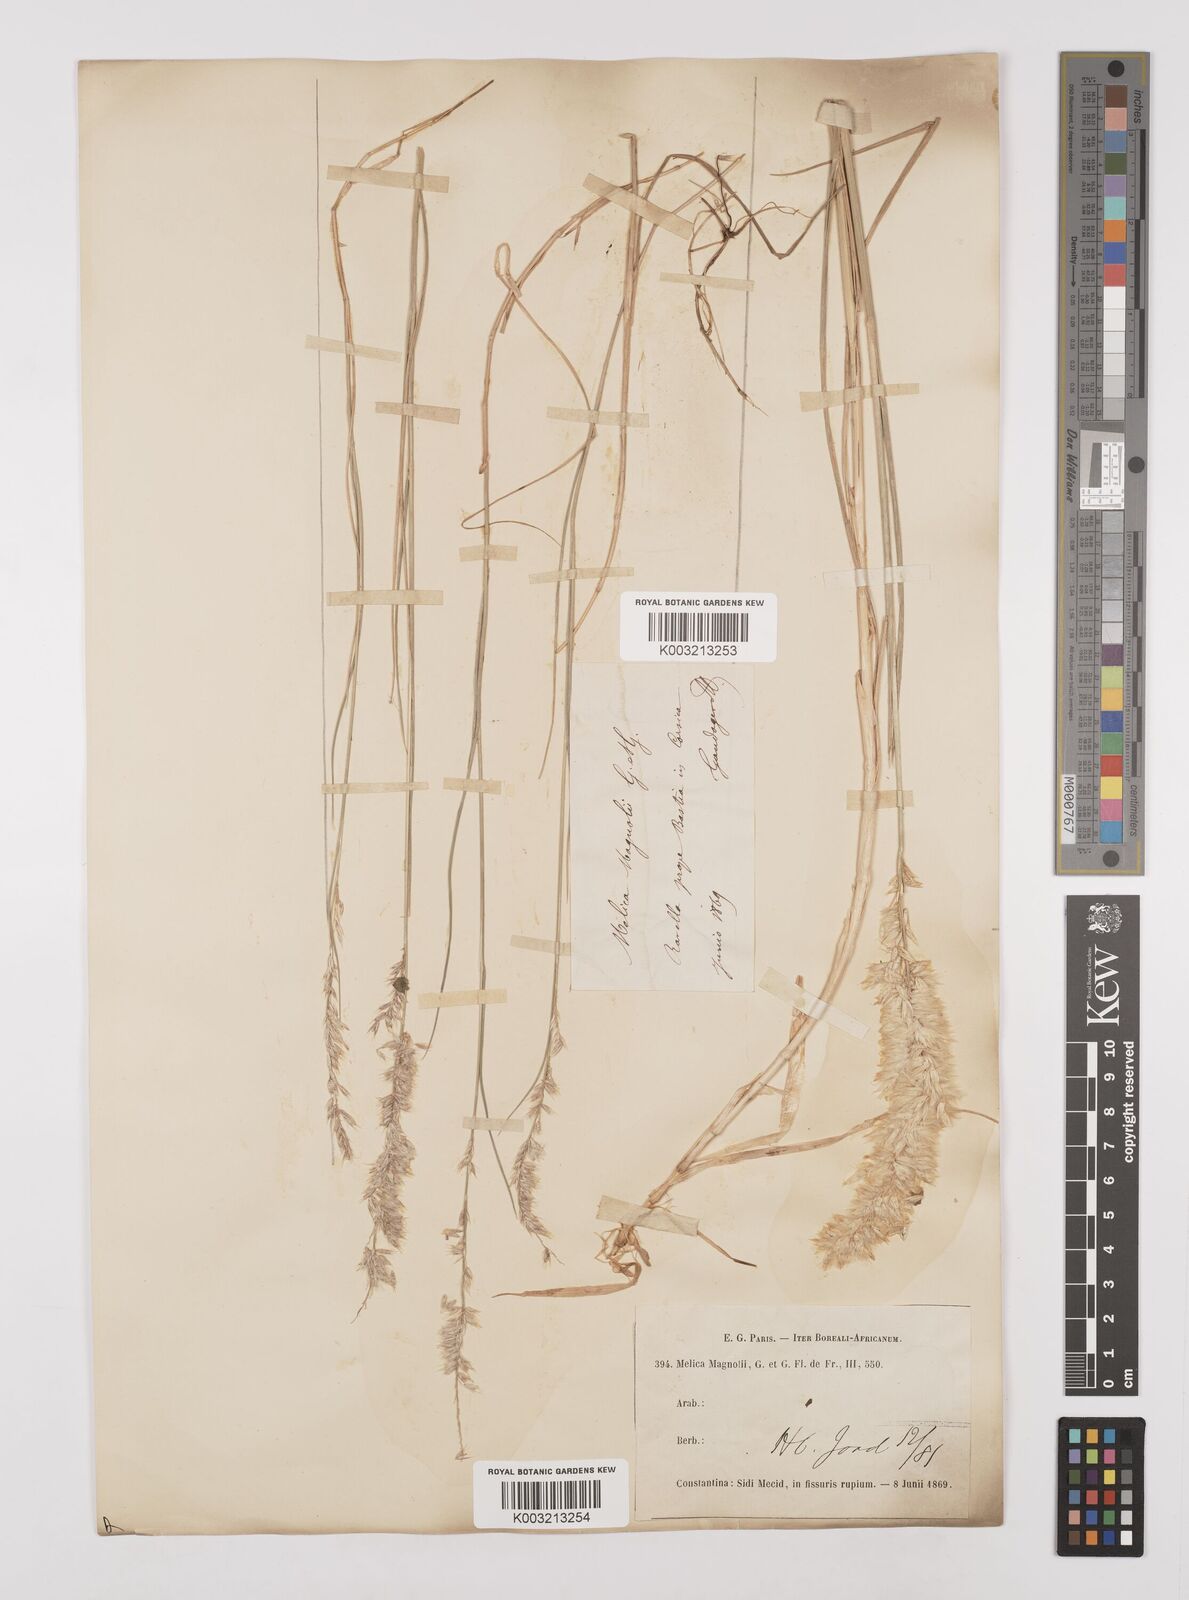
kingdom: Plantae
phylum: Tracheophyta
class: Liliopsida
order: Poales
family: Poaceae
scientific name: Poaceae
